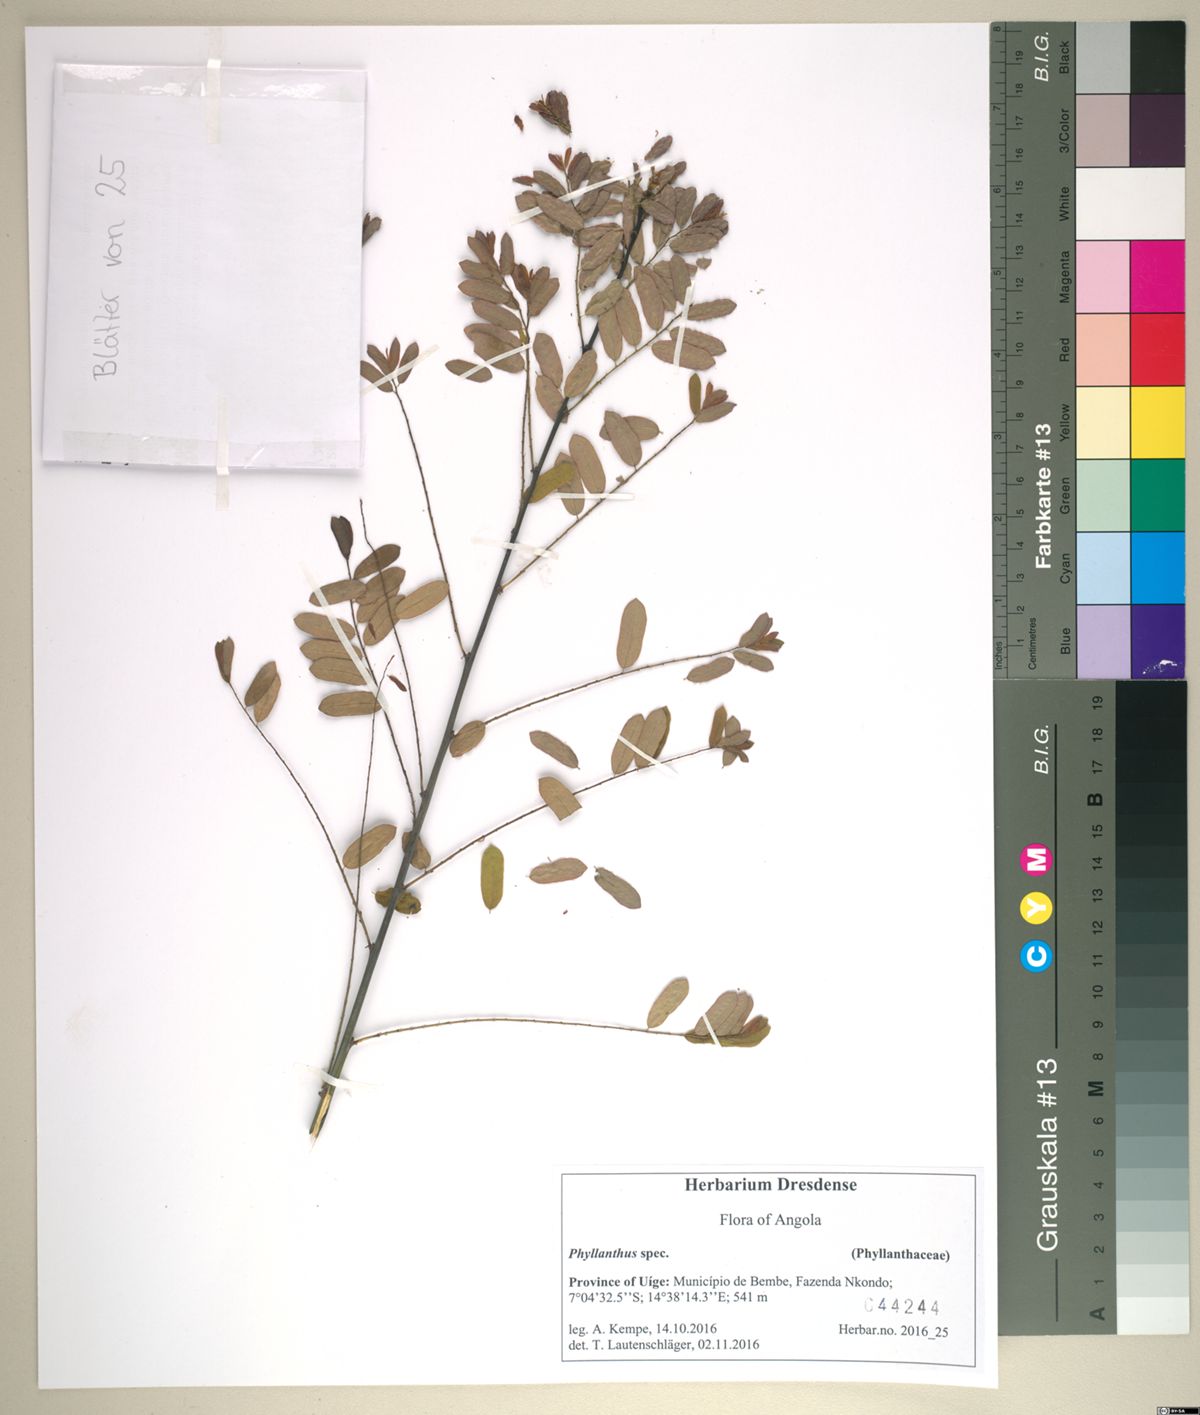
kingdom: Plantae
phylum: Tracheophyta
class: Magnoliopsida
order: Malpighiales
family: Phyllanthaceae
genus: Phyllanthus
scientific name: Phyllanthus ovalifolius
